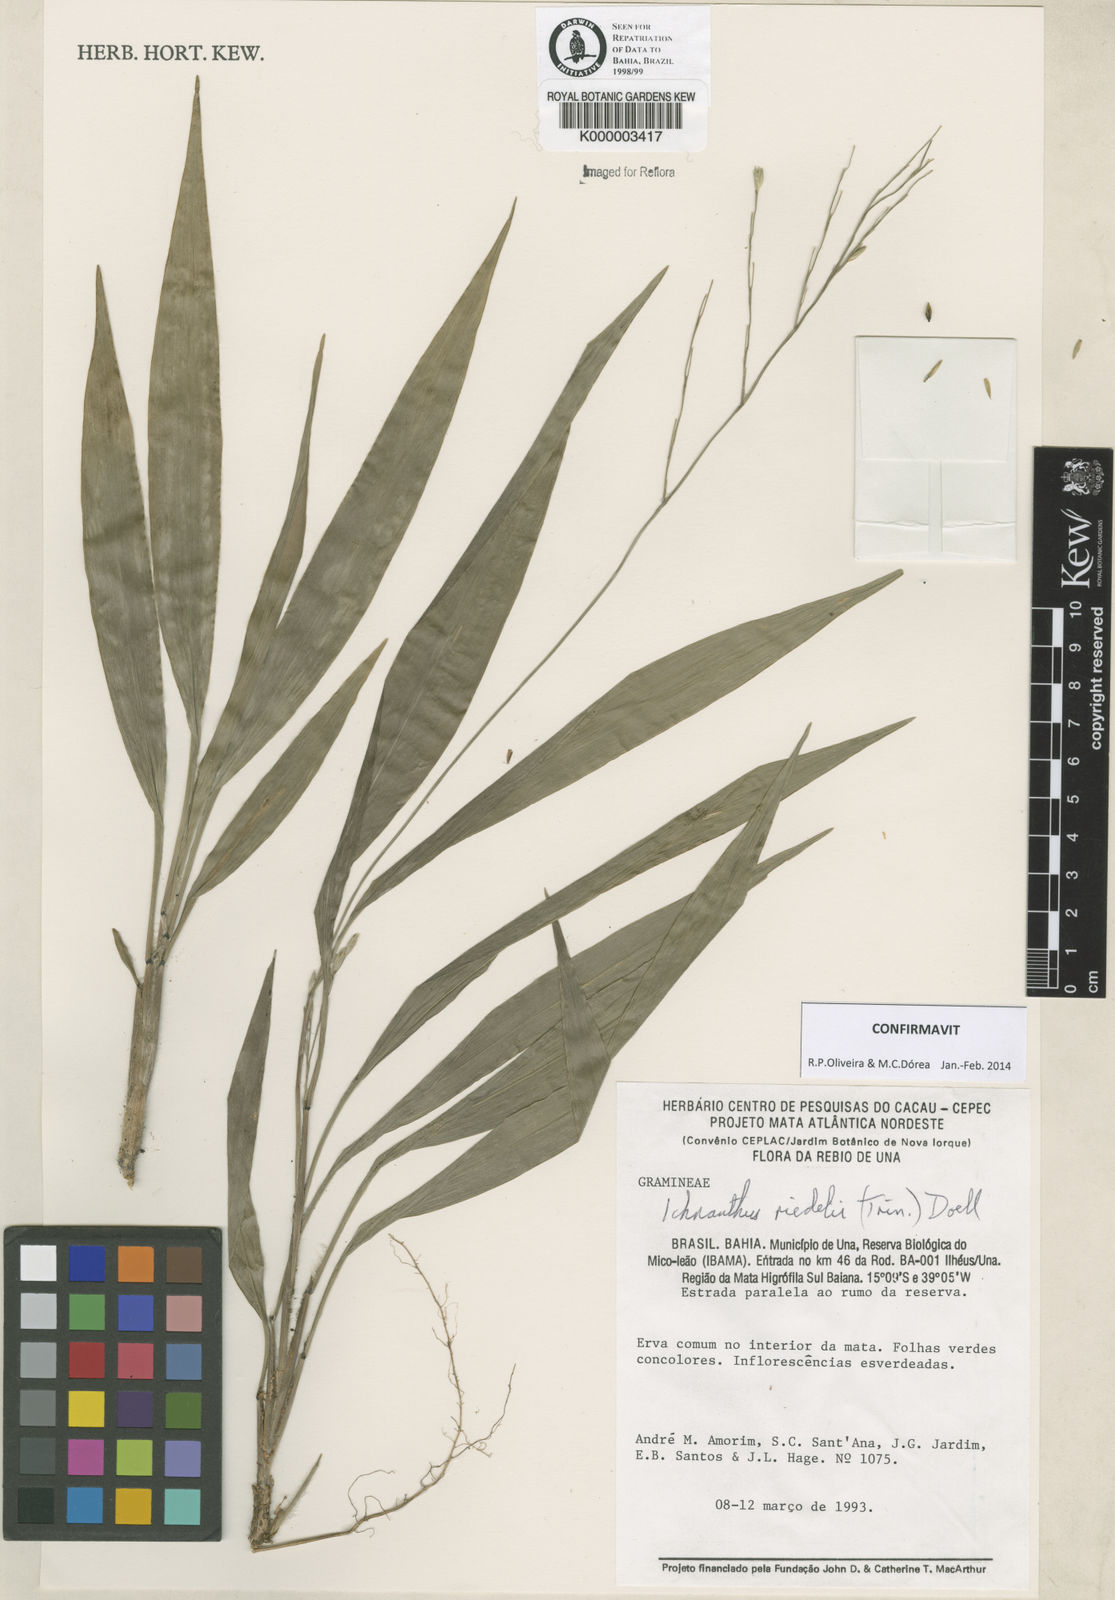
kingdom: Plantae
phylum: Tracheophyta
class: Liliopsida
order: Poales
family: Poaceae
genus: Ichnanthus
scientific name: Ichnanthus
